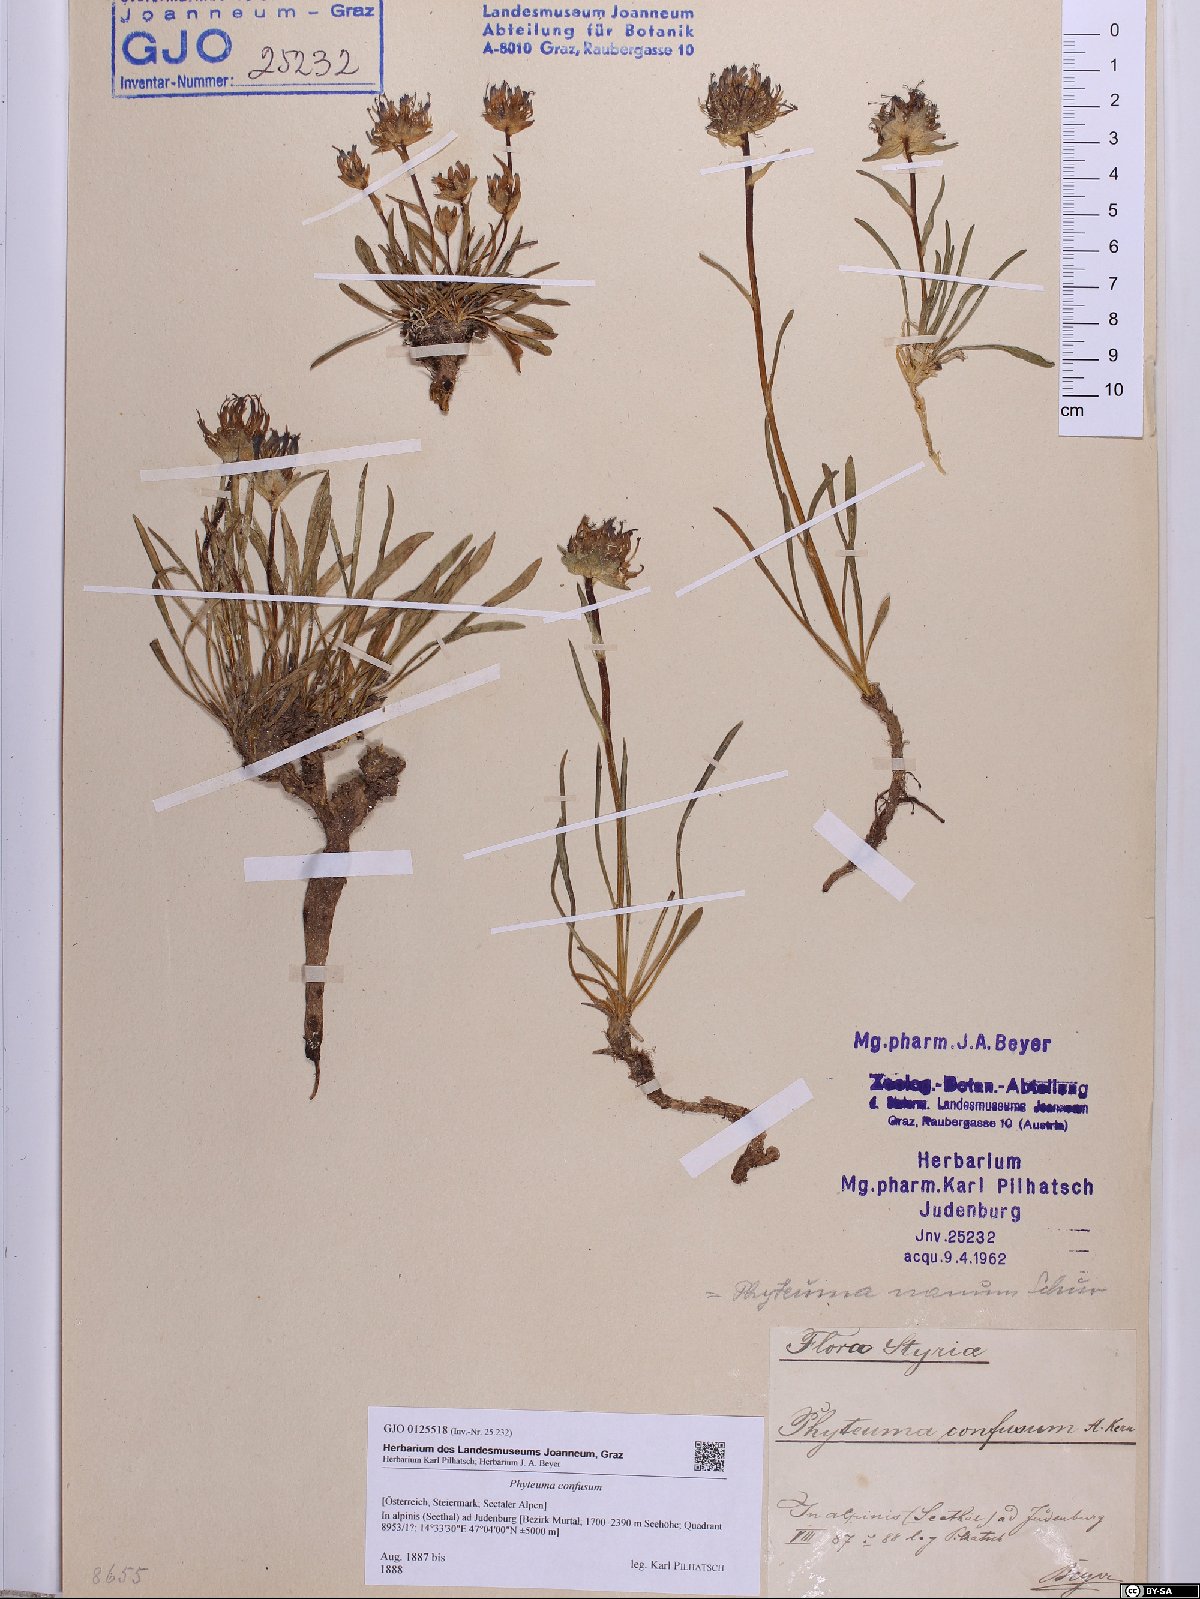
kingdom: Plantae
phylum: Tracheophyta
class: Magnoliopsida
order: Asterales
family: Campanulaceae
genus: Phyteuma
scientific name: Phyteuma confusum
